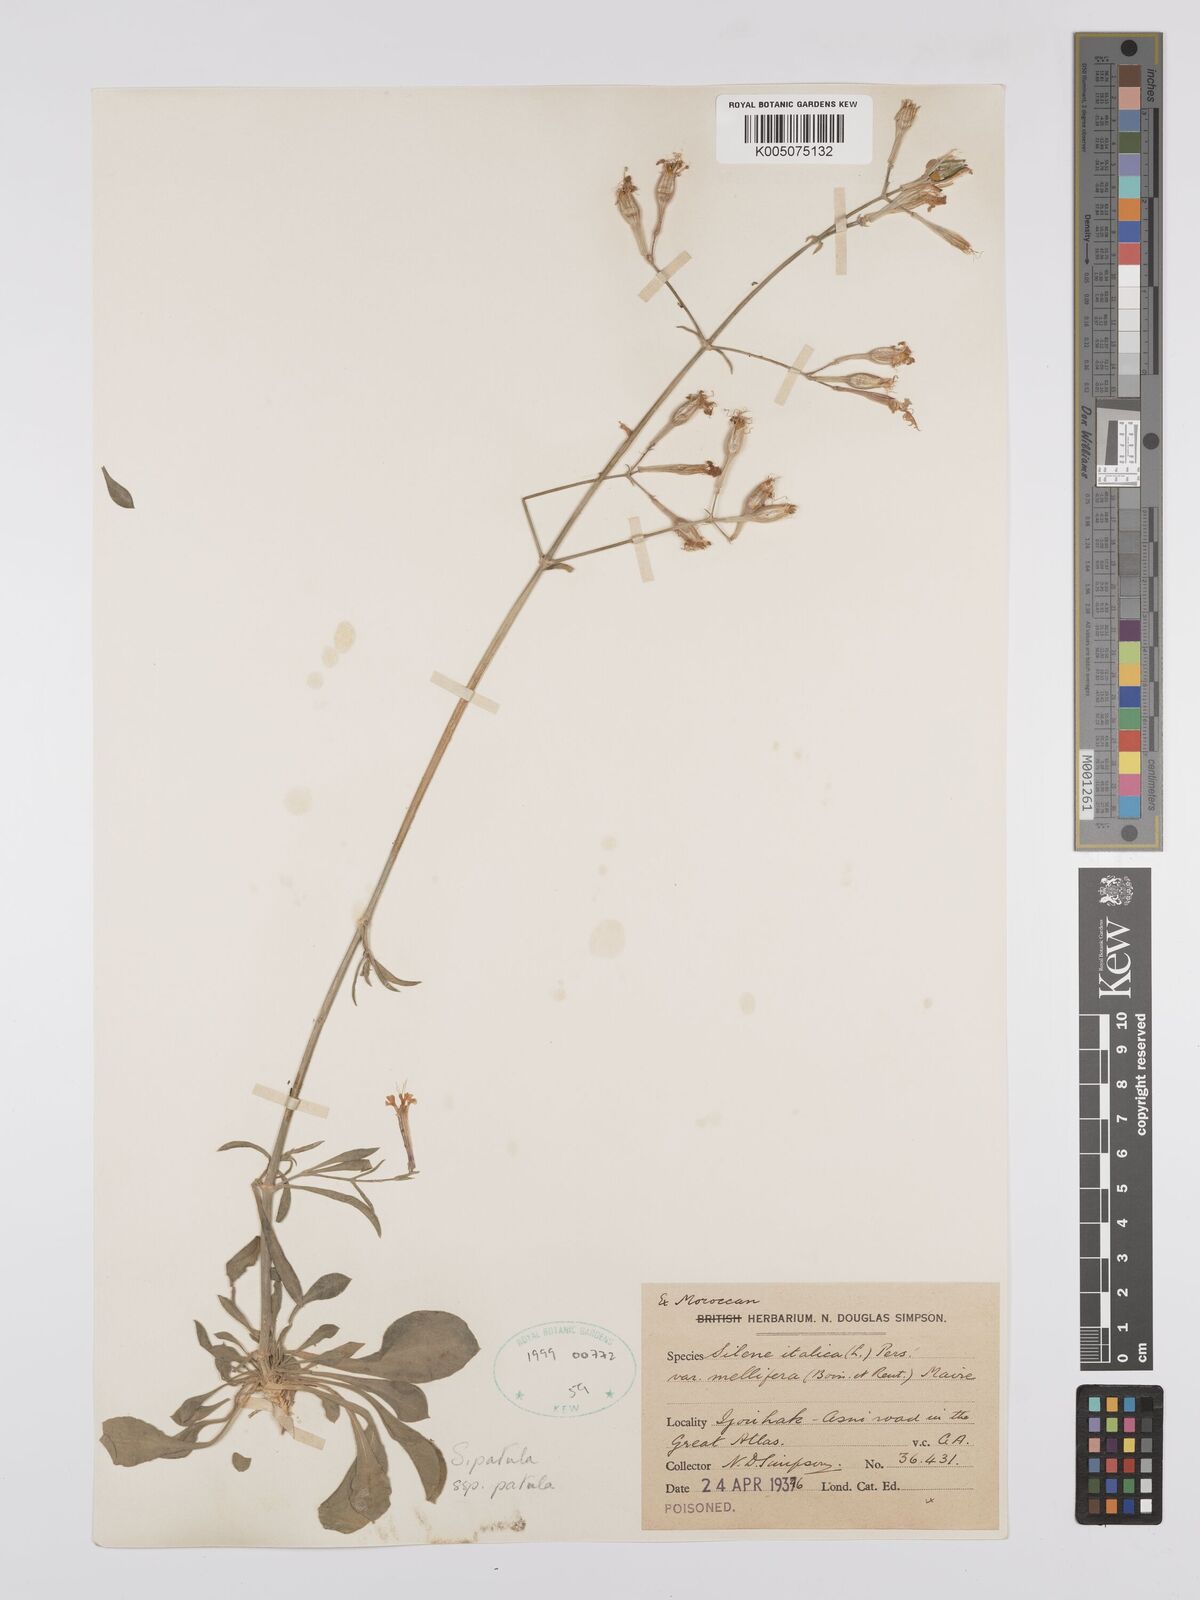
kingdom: Plantae
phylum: Tracheophyta
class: Magnoliopsida
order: Caryophyllales
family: Caryophyllaceae
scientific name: Caryophyllaceae
